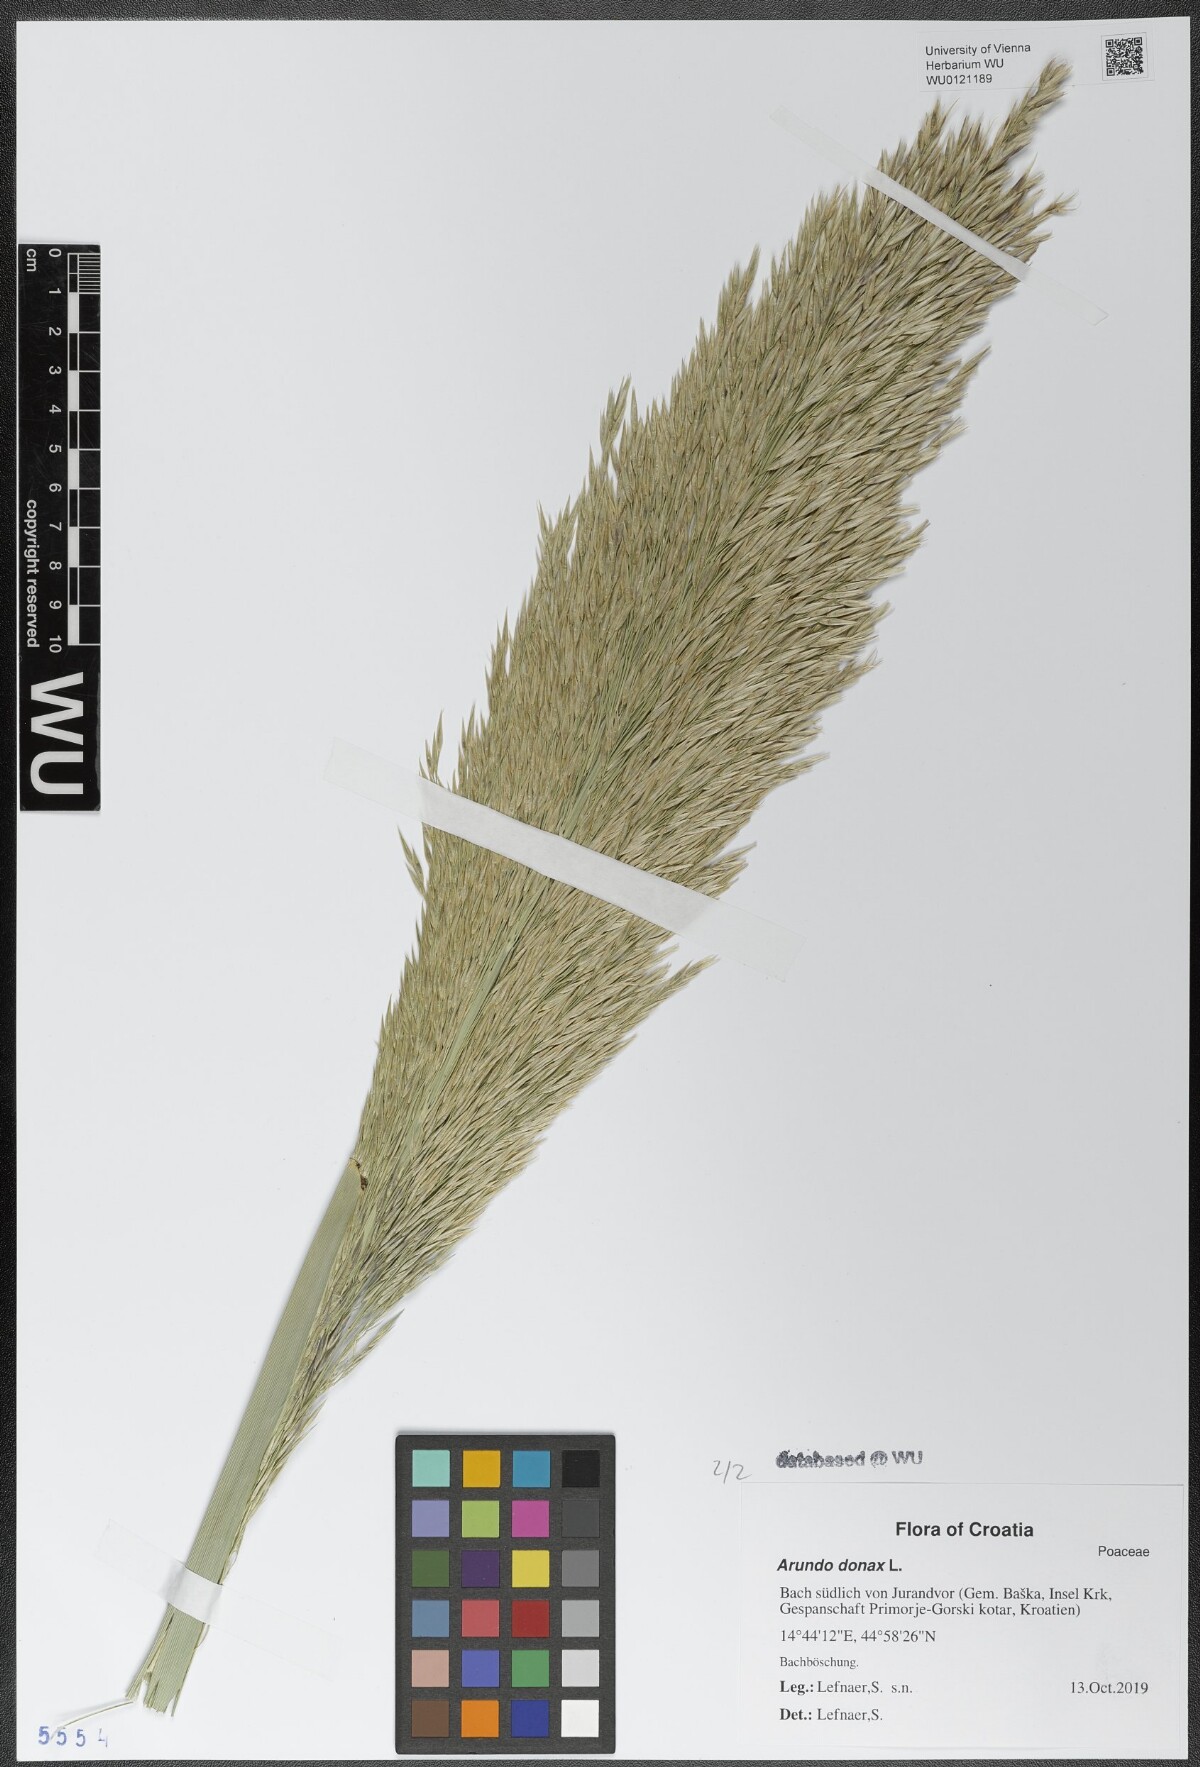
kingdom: Plantae
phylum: Tracheophyta
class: Liliopsida
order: Poales
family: Poaceae
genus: Arundo
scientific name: Arundo donax
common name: Giant reed
